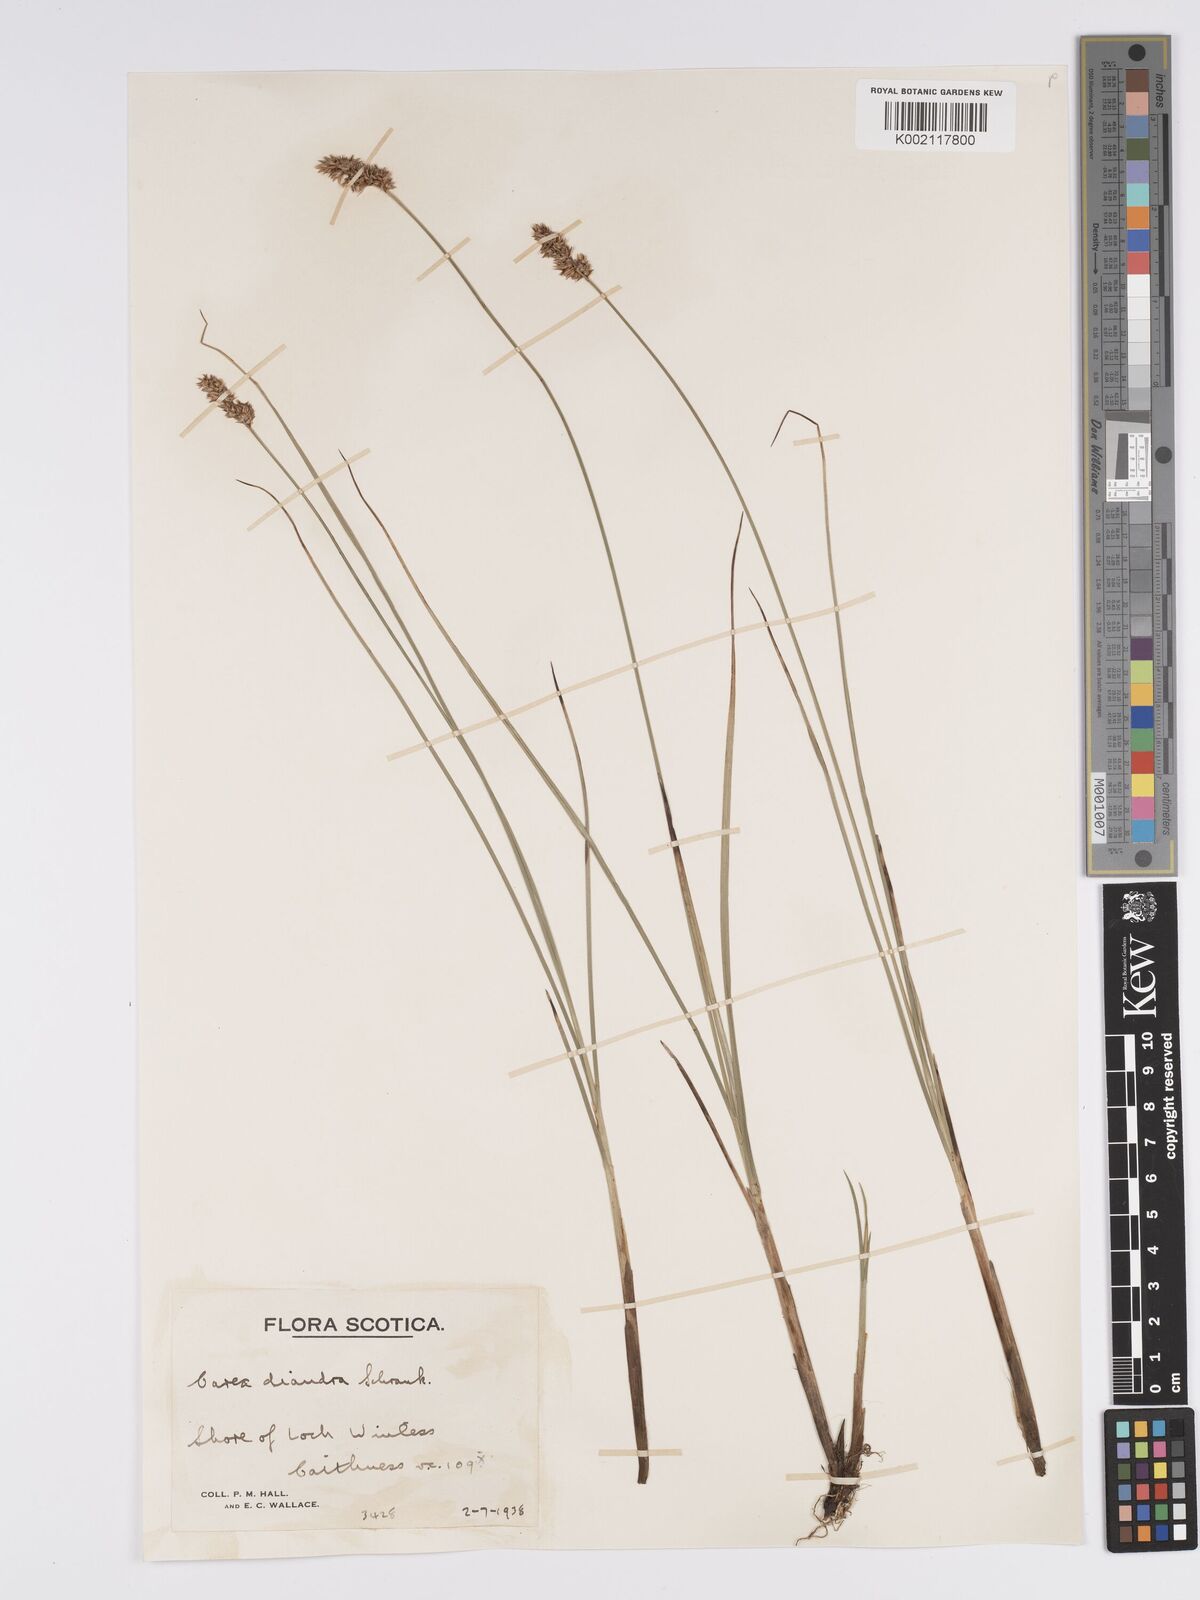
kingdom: Plantae
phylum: Tracheophyta
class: Liliopsida
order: Poales
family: Cyperaceae
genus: Carex
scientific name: Carex diandra
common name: Lesser tussock-sedge
